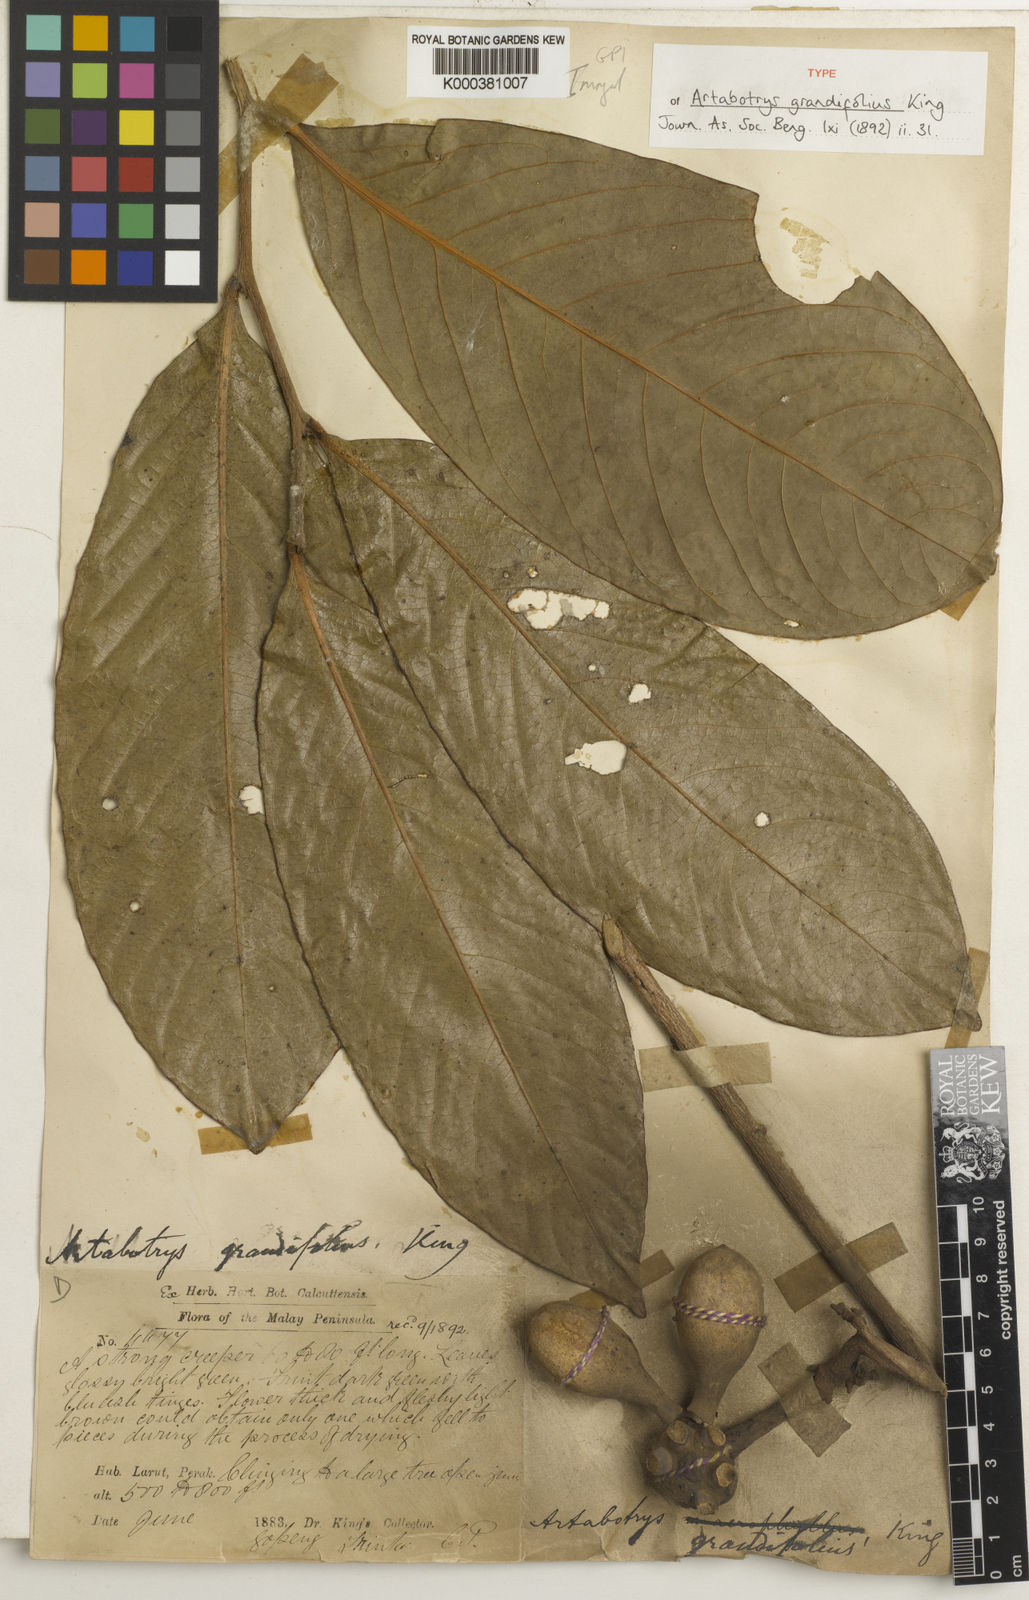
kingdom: Plantae
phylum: Tracheophyta
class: Magnoliopsida
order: Magnoliales
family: Annonaceae
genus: Artabotrys
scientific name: Artabotrys
